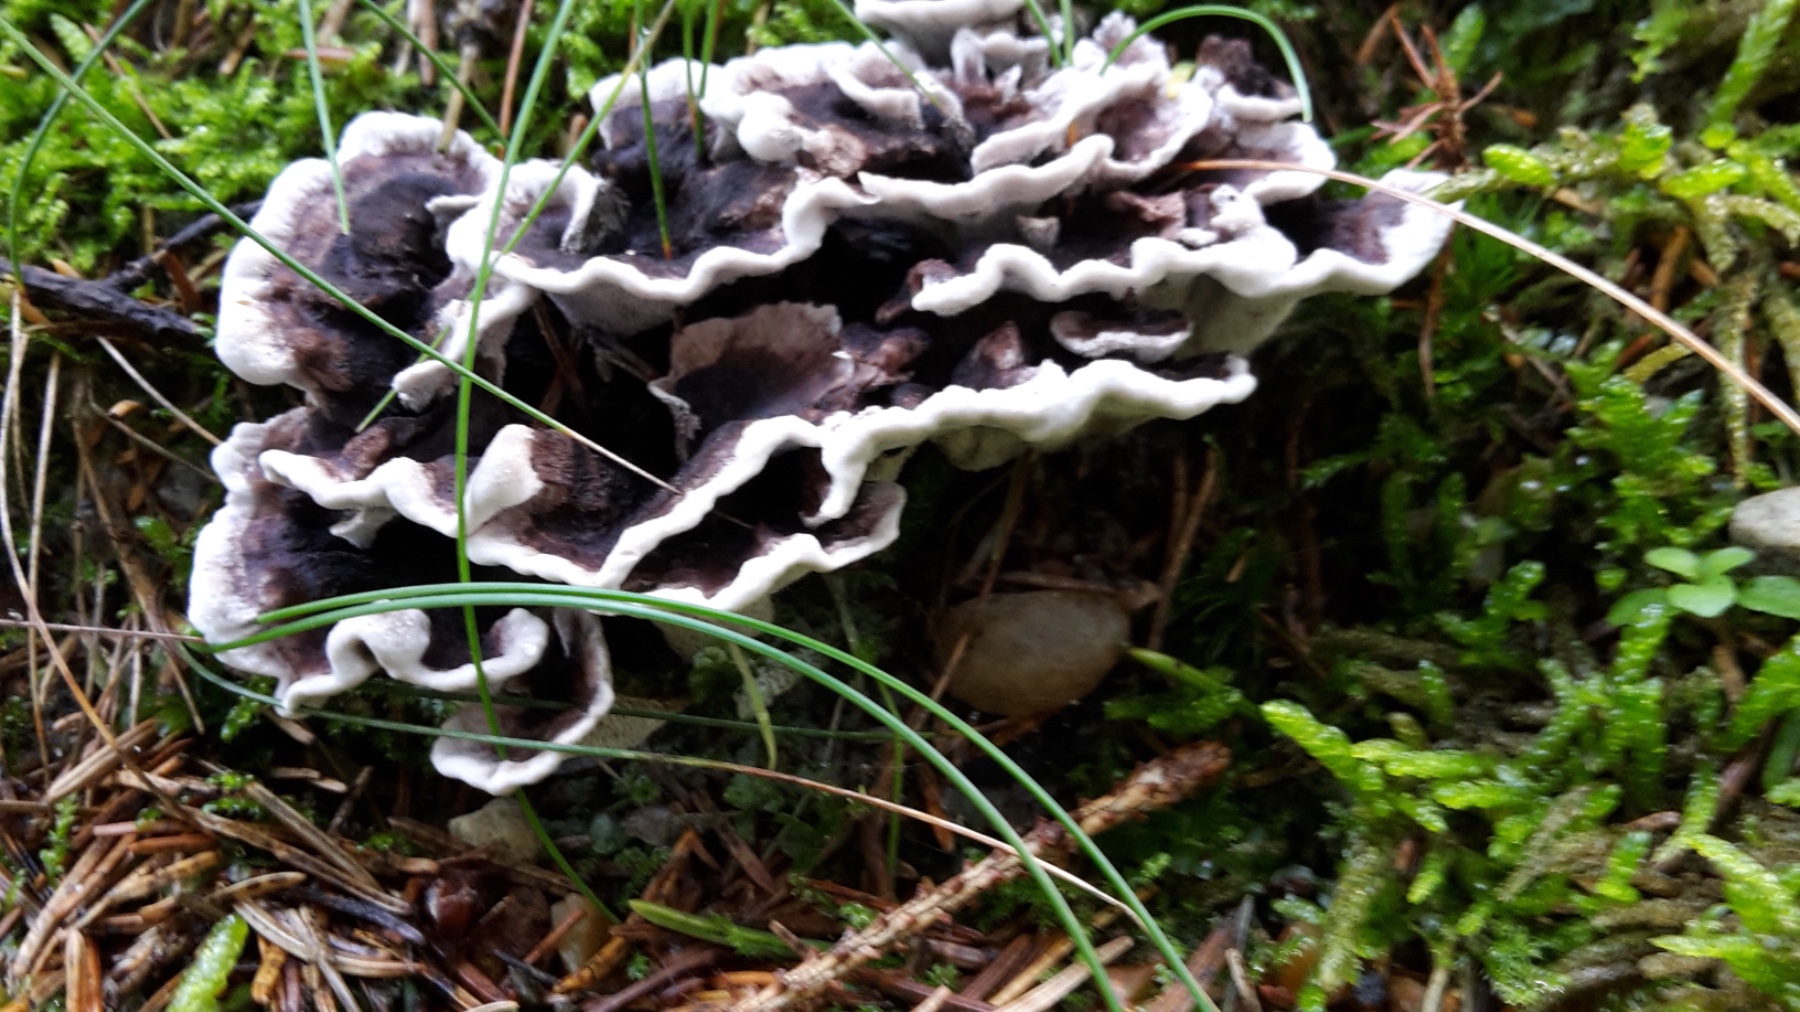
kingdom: Fungi
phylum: Basidiomycota
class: Agaricomycetes
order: Thelephorales
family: Thelephoraceae
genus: Phellodon
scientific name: Phellodon tomentosus
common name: vellugtende duftpigsvamp
